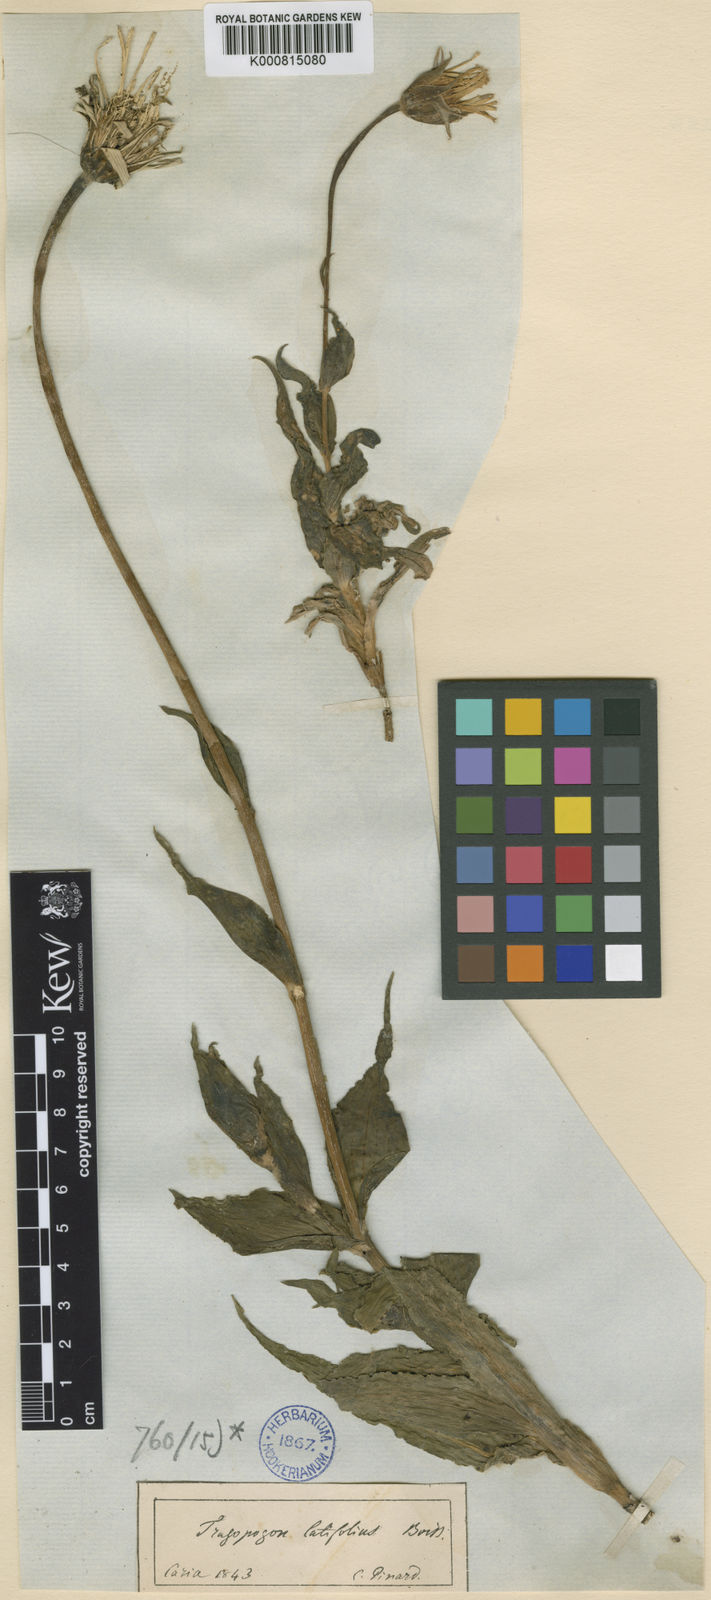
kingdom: Plantae
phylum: Tracheophyta
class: Magnoliopsida
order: Asterales
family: Asteraceae
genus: Tragopogon
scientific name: Tragopogon latifolius
